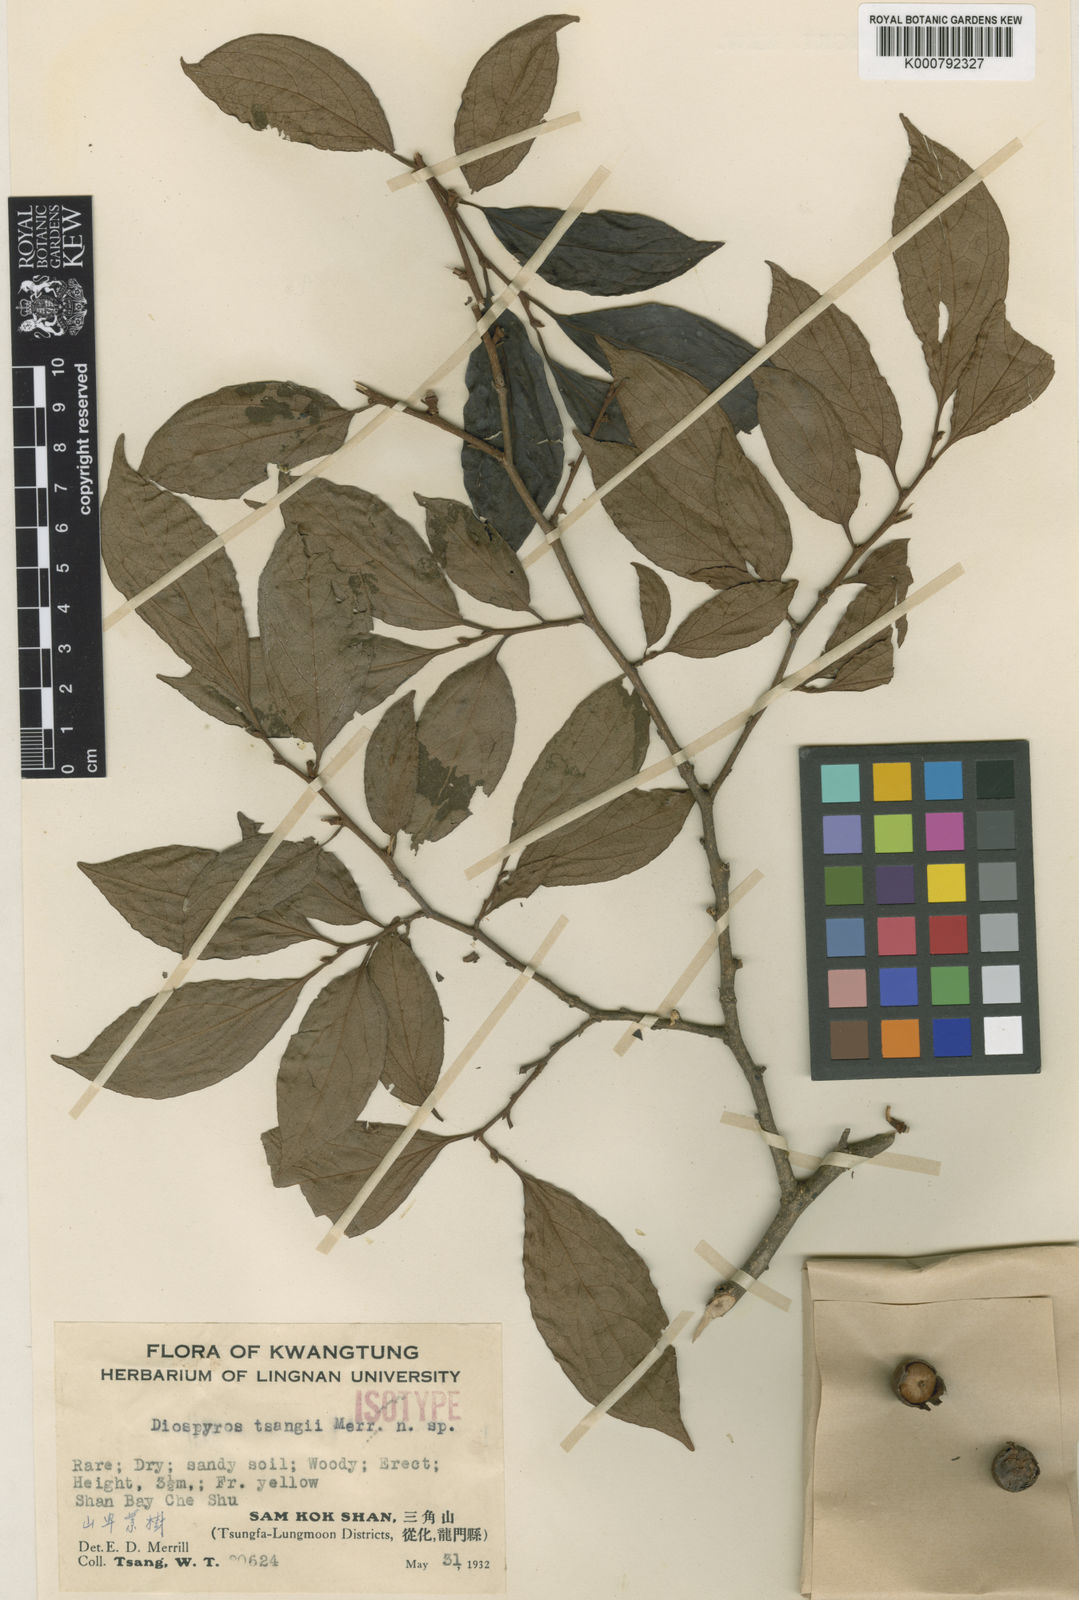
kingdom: Plantae
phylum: Tracheophyta
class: Magnoliopsida
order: Ericales
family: Ebenaceae
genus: Diospyros
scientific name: Diospyros tsangii
